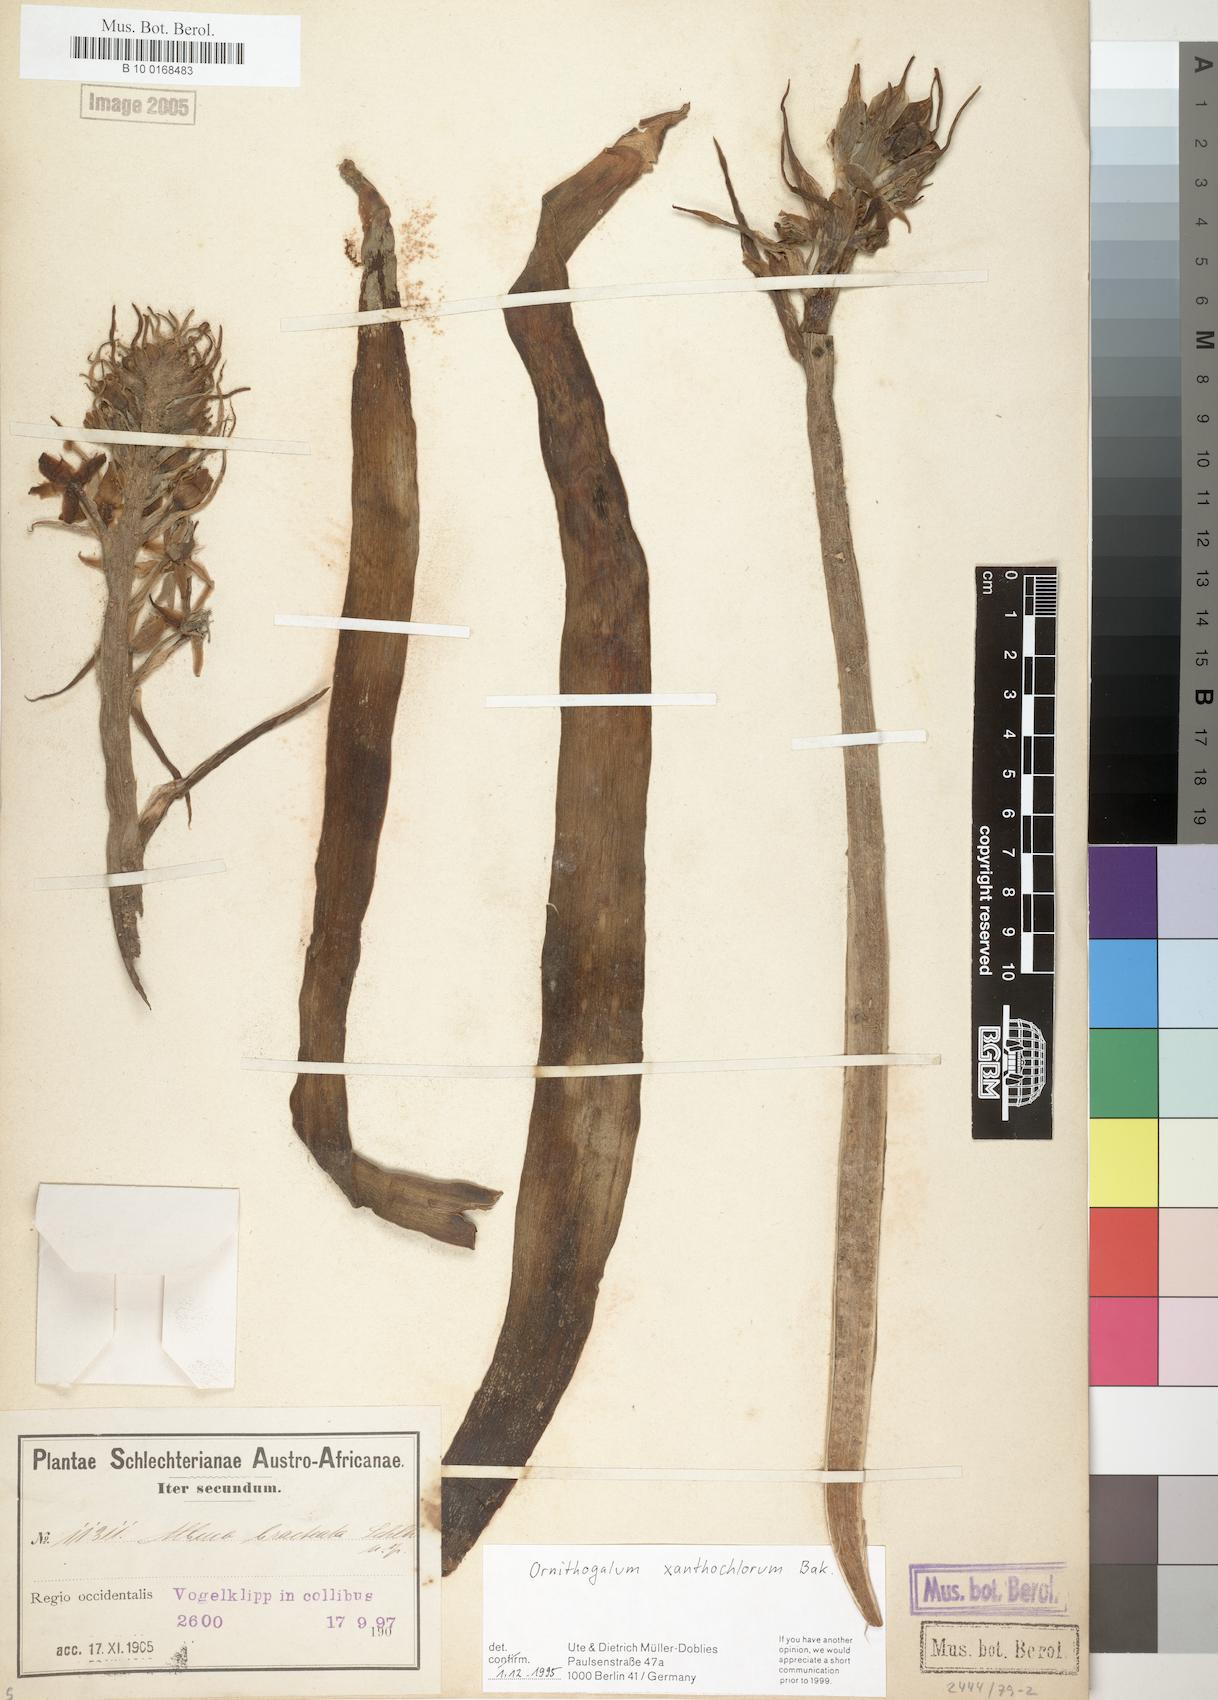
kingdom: Plantae
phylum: Tracheophyta
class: Liliopsida
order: Asparagales
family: Asparagaceae
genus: Ornithogalum
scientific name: Ornithogalum xanthochlorum
